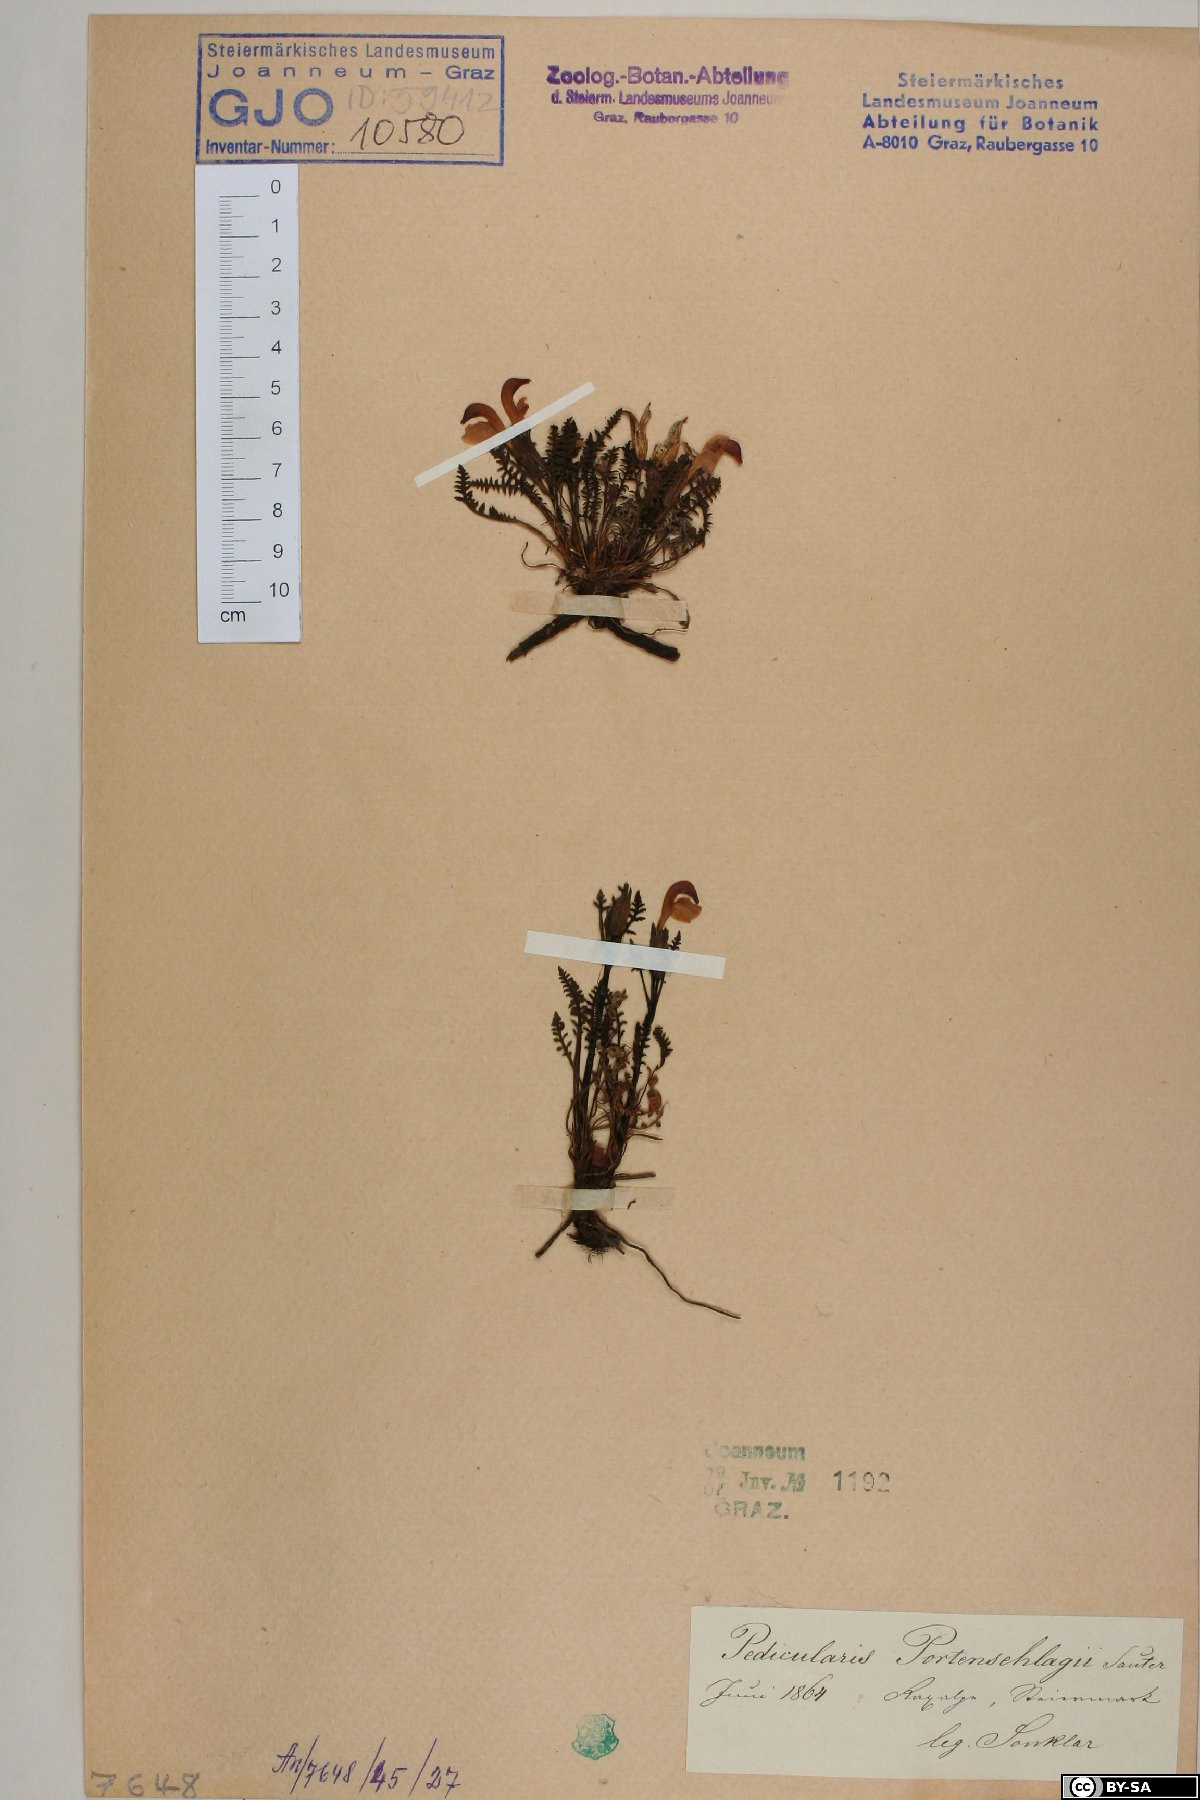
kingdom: Plantae
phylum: Tracheophyta
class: Magnoliopsida
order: Lamiales
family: Orobanchaceae
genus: Pedicularis
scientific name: Pedicularis portenschlagii
